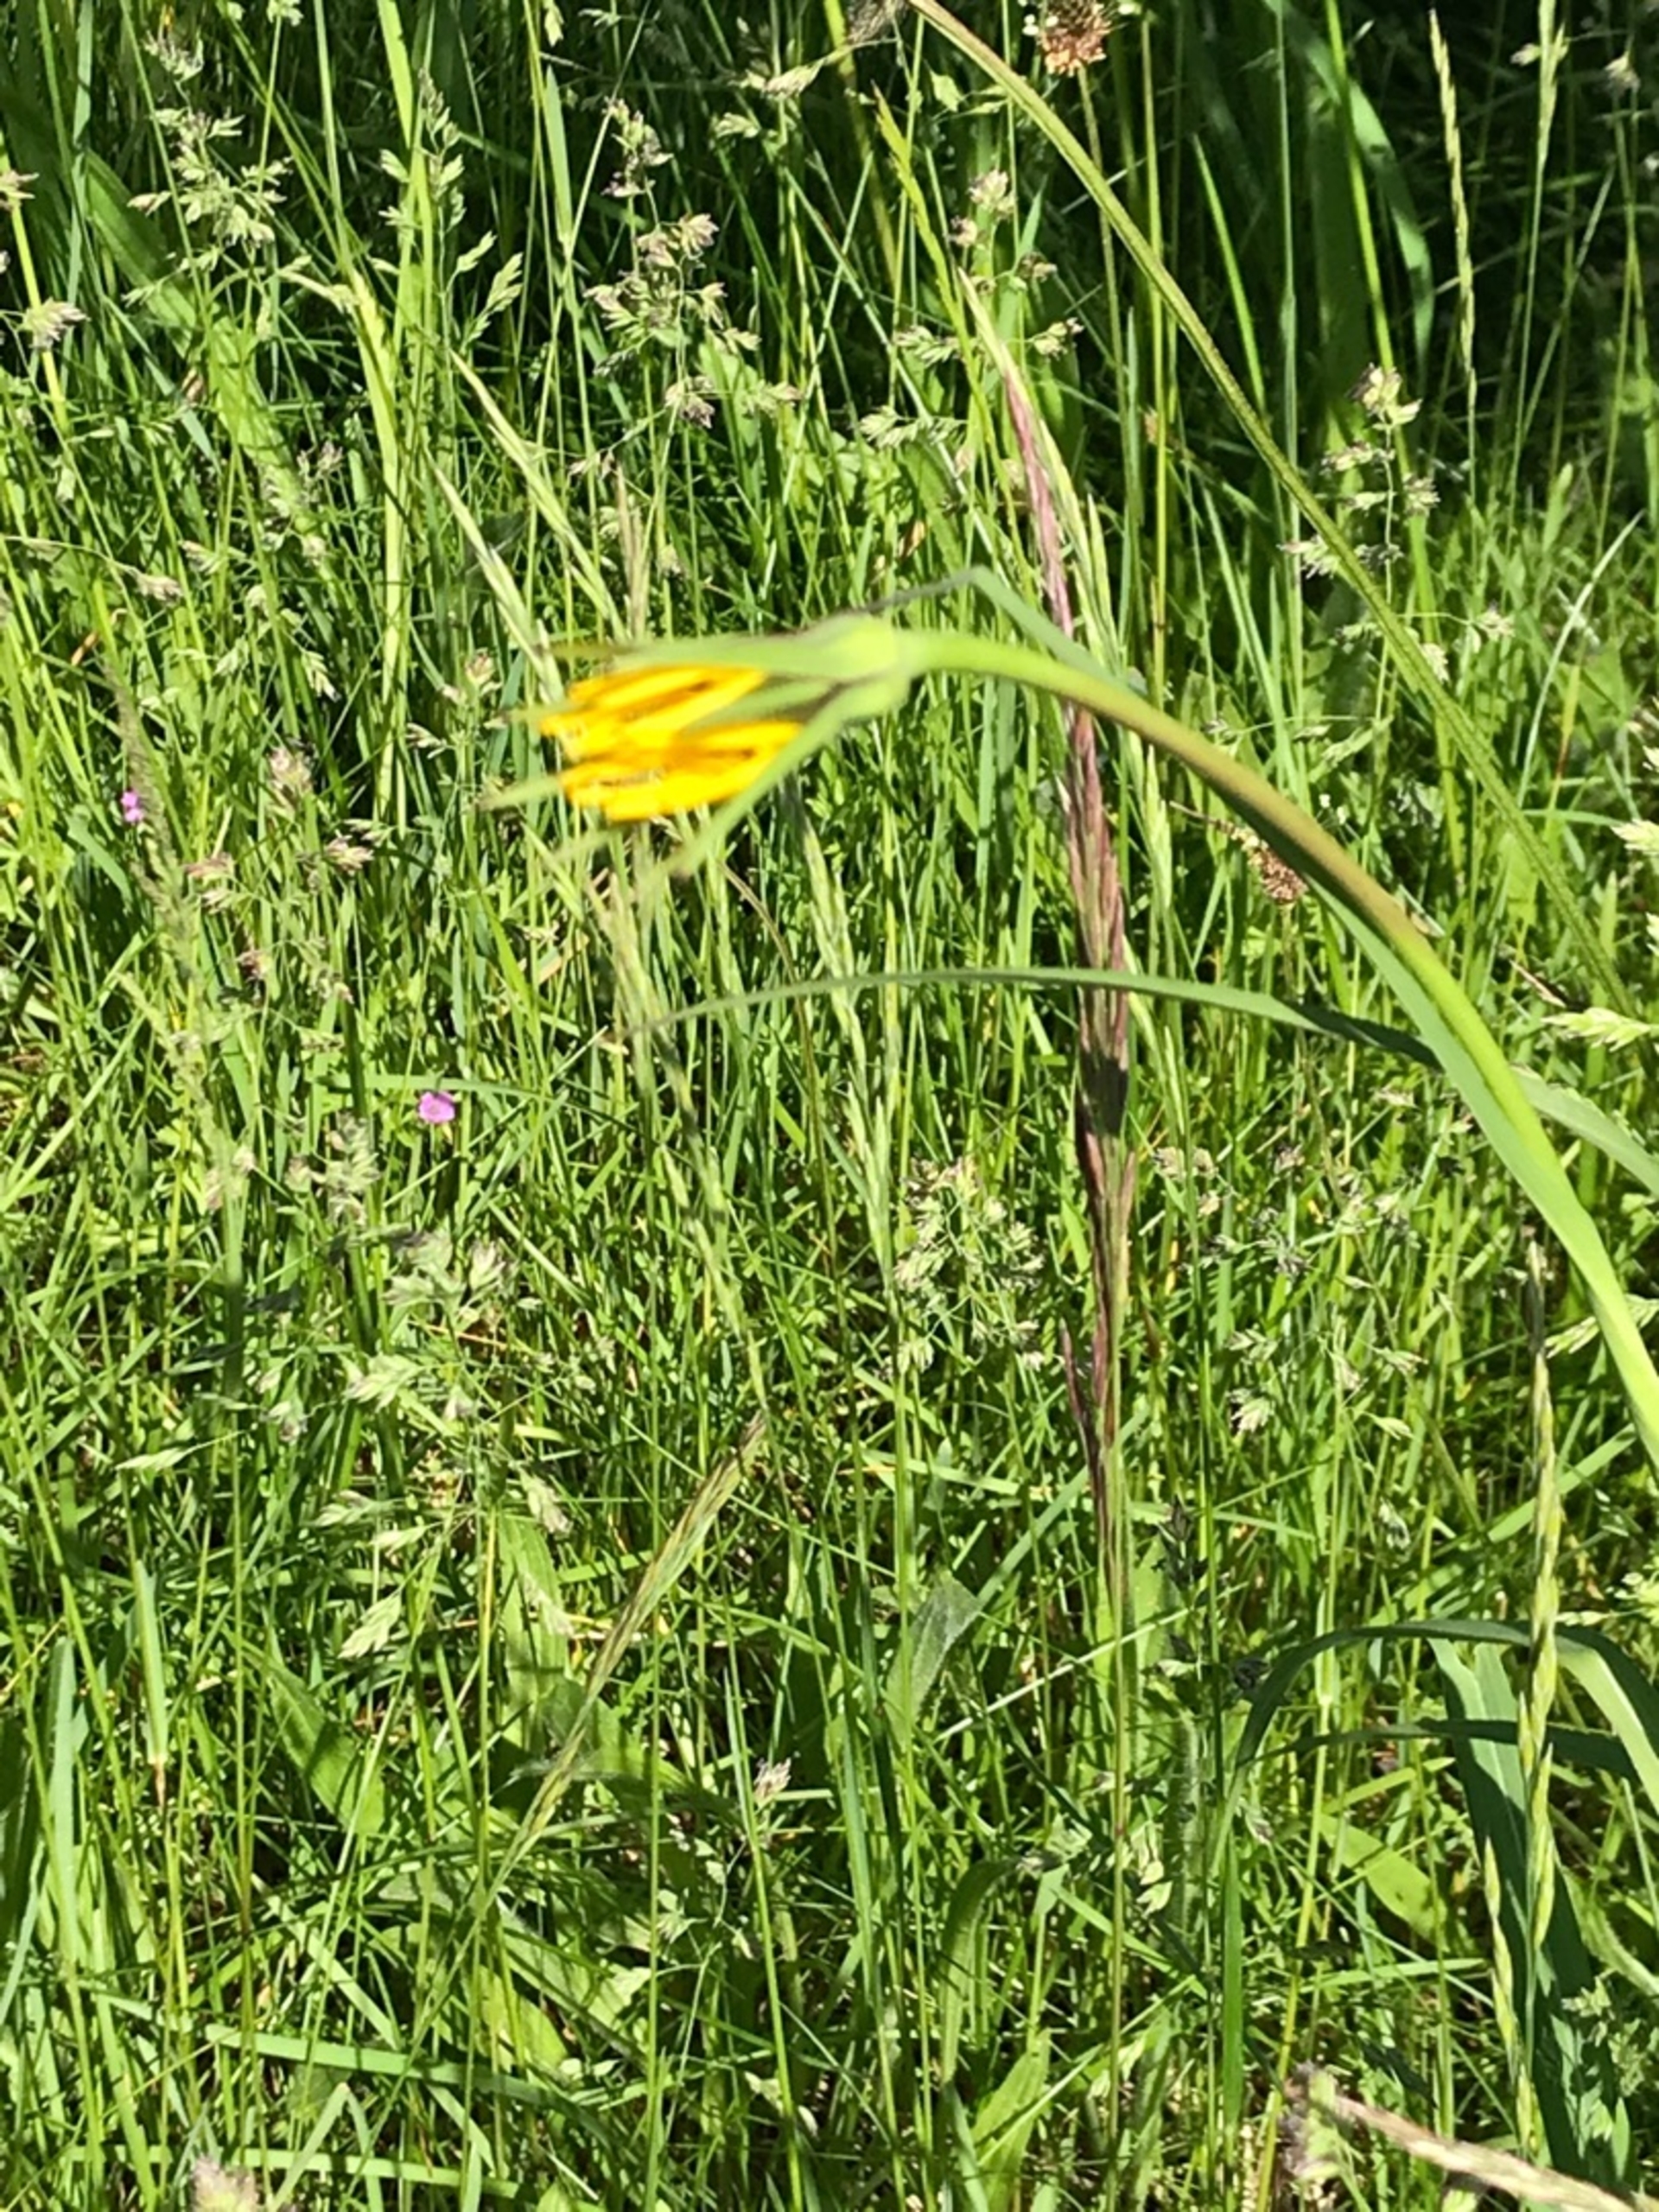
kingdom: Plantae
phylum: Tracheophyta
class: Magnoliopsida
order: Asterales
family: Asteraceae
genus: Tragopogon
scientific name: Tragopogon pratensis
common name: Gedeskæg
